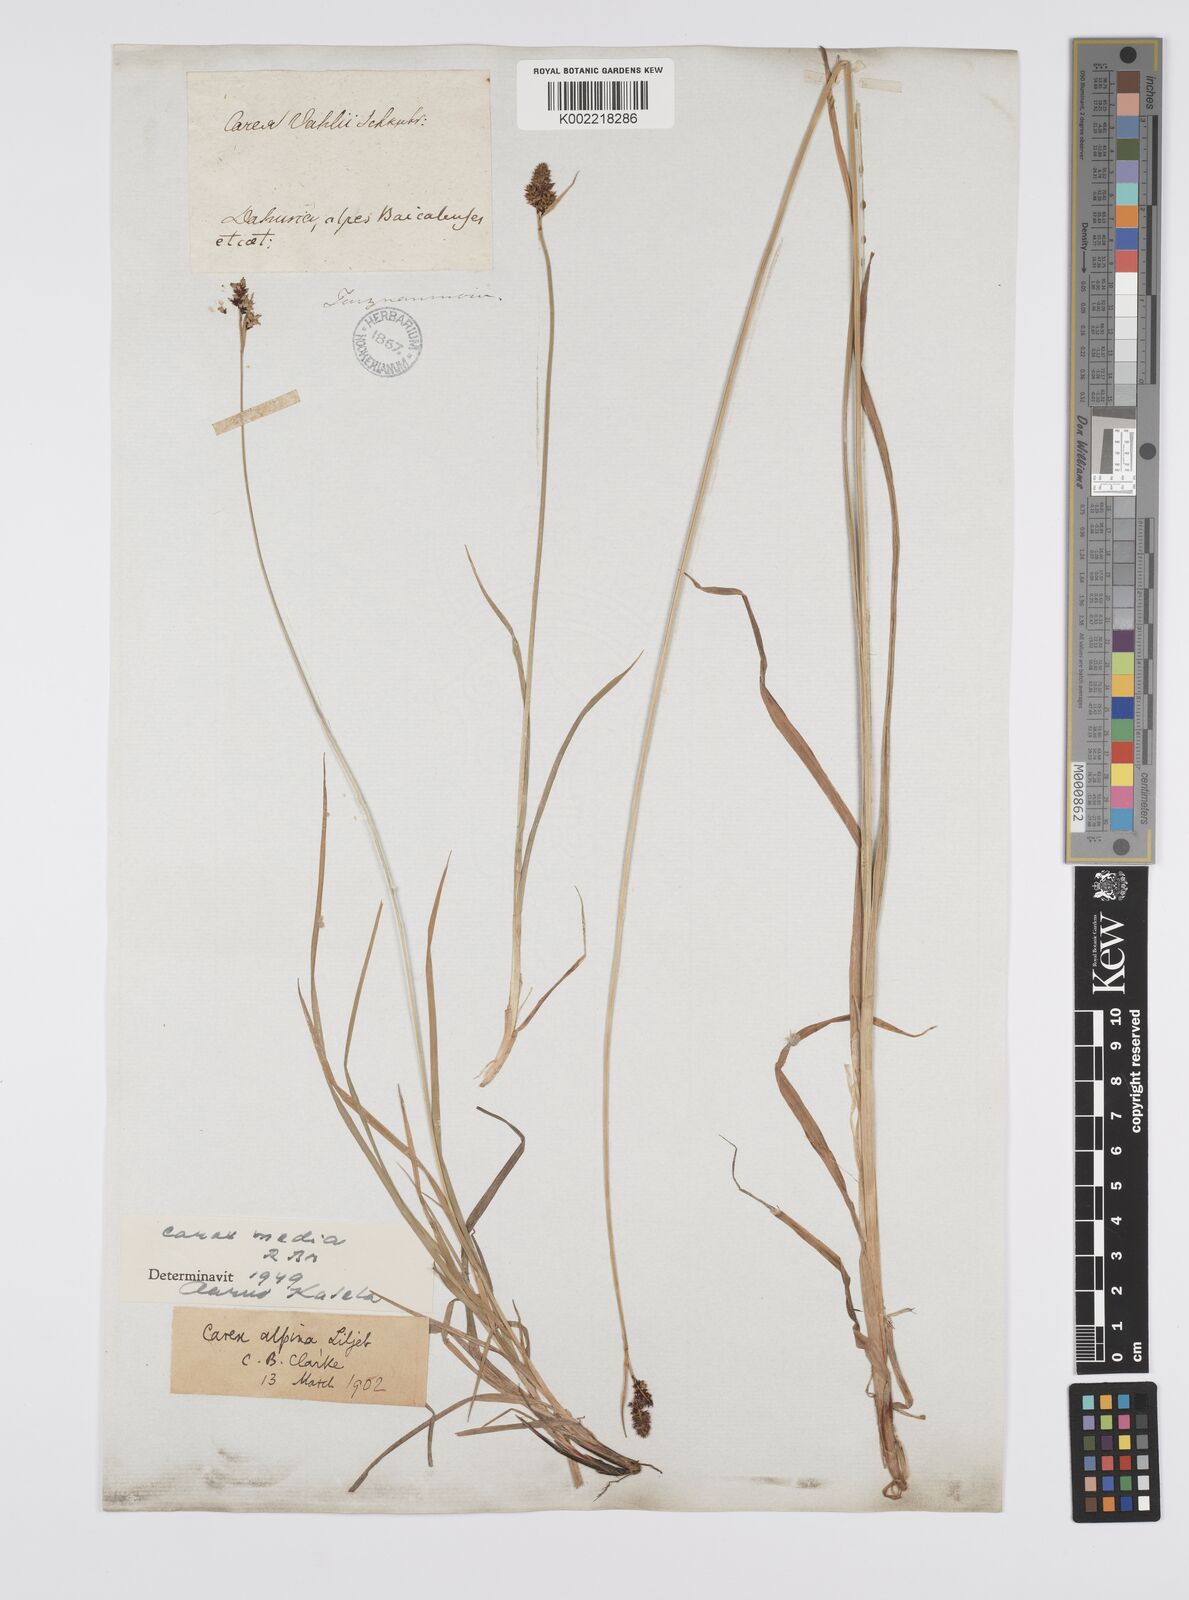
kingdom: Plantae
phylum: Tracheophyta
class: Liliopsida
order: Poales
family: Cyperaceae
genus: Carex
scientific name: Carex norvegica
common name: Close-headed alpine-sedge
